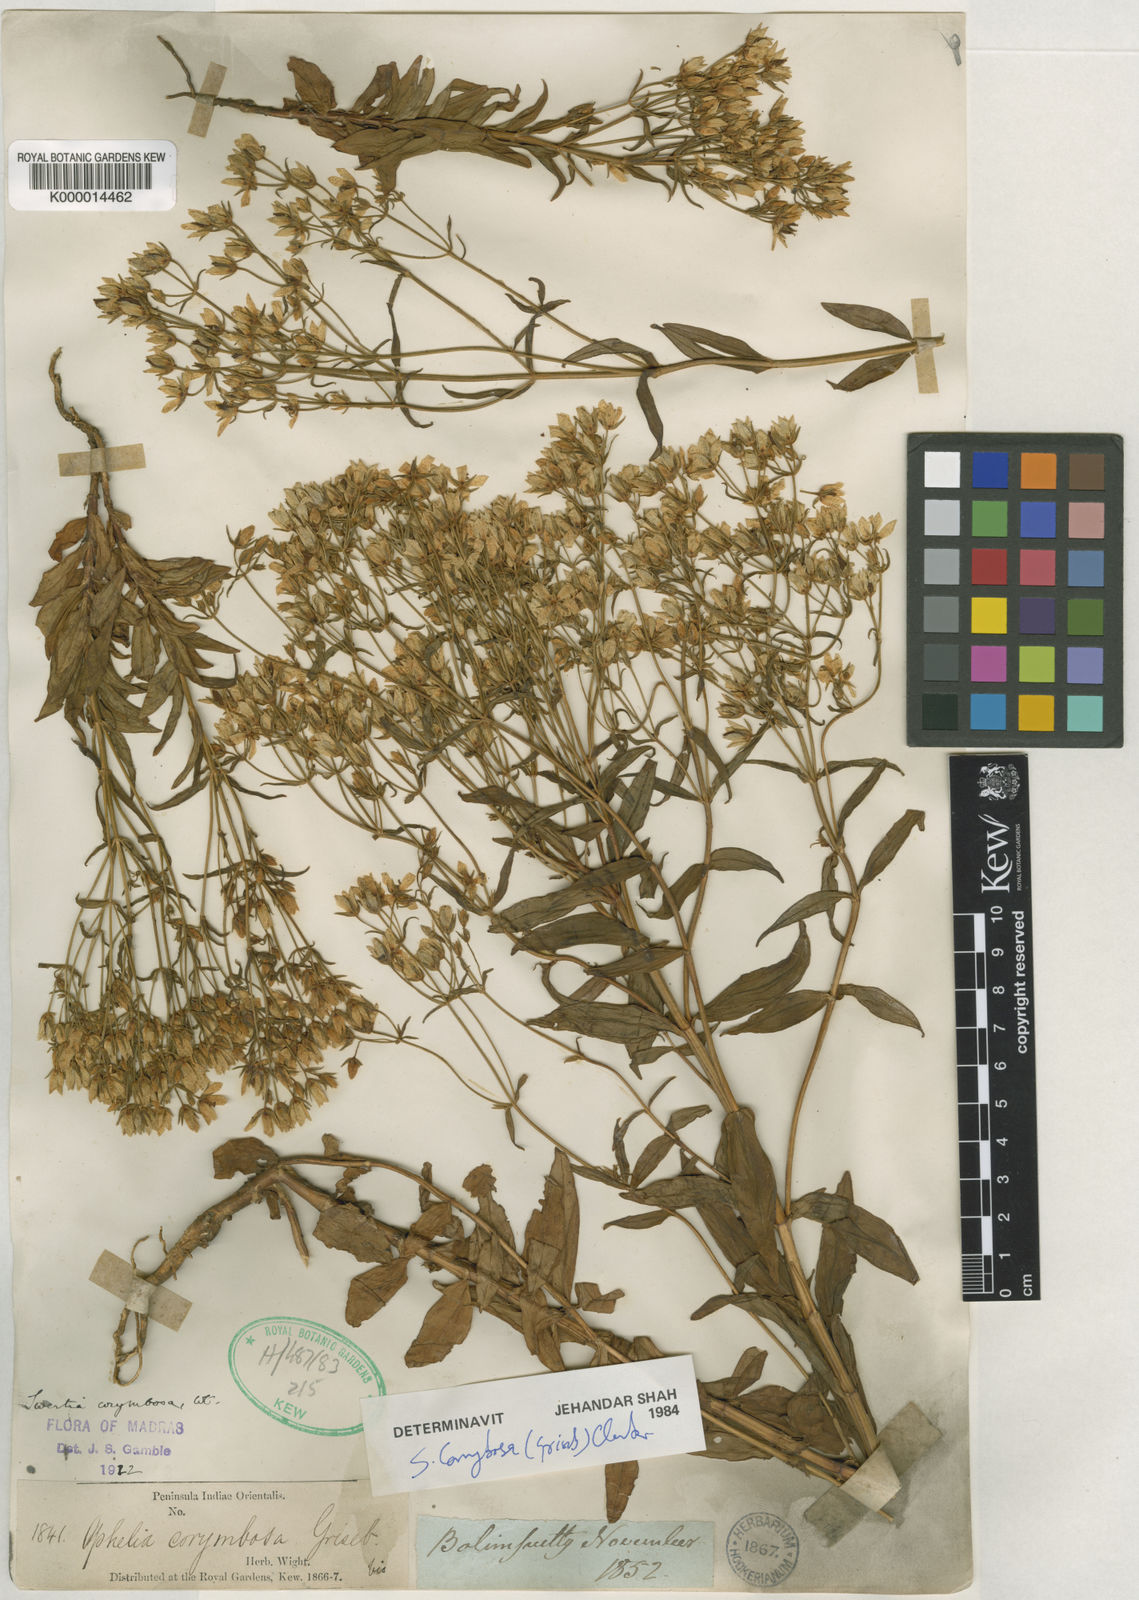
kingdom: Plantae
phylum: Tracheophyta
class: Magnoliopsida
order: Gentianales
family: Gentianaceae
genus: Swertia
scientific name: Swertia
